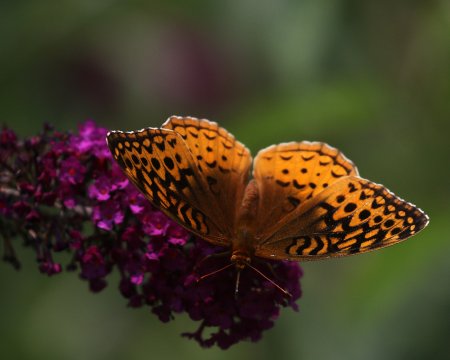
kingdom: Animalia
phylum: Arthropoda
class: Insecta
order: Lepidoptera
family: Nymphalidae
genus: Speyeria
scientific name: Speyeria cybele
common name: Great Spangled Fritillary
